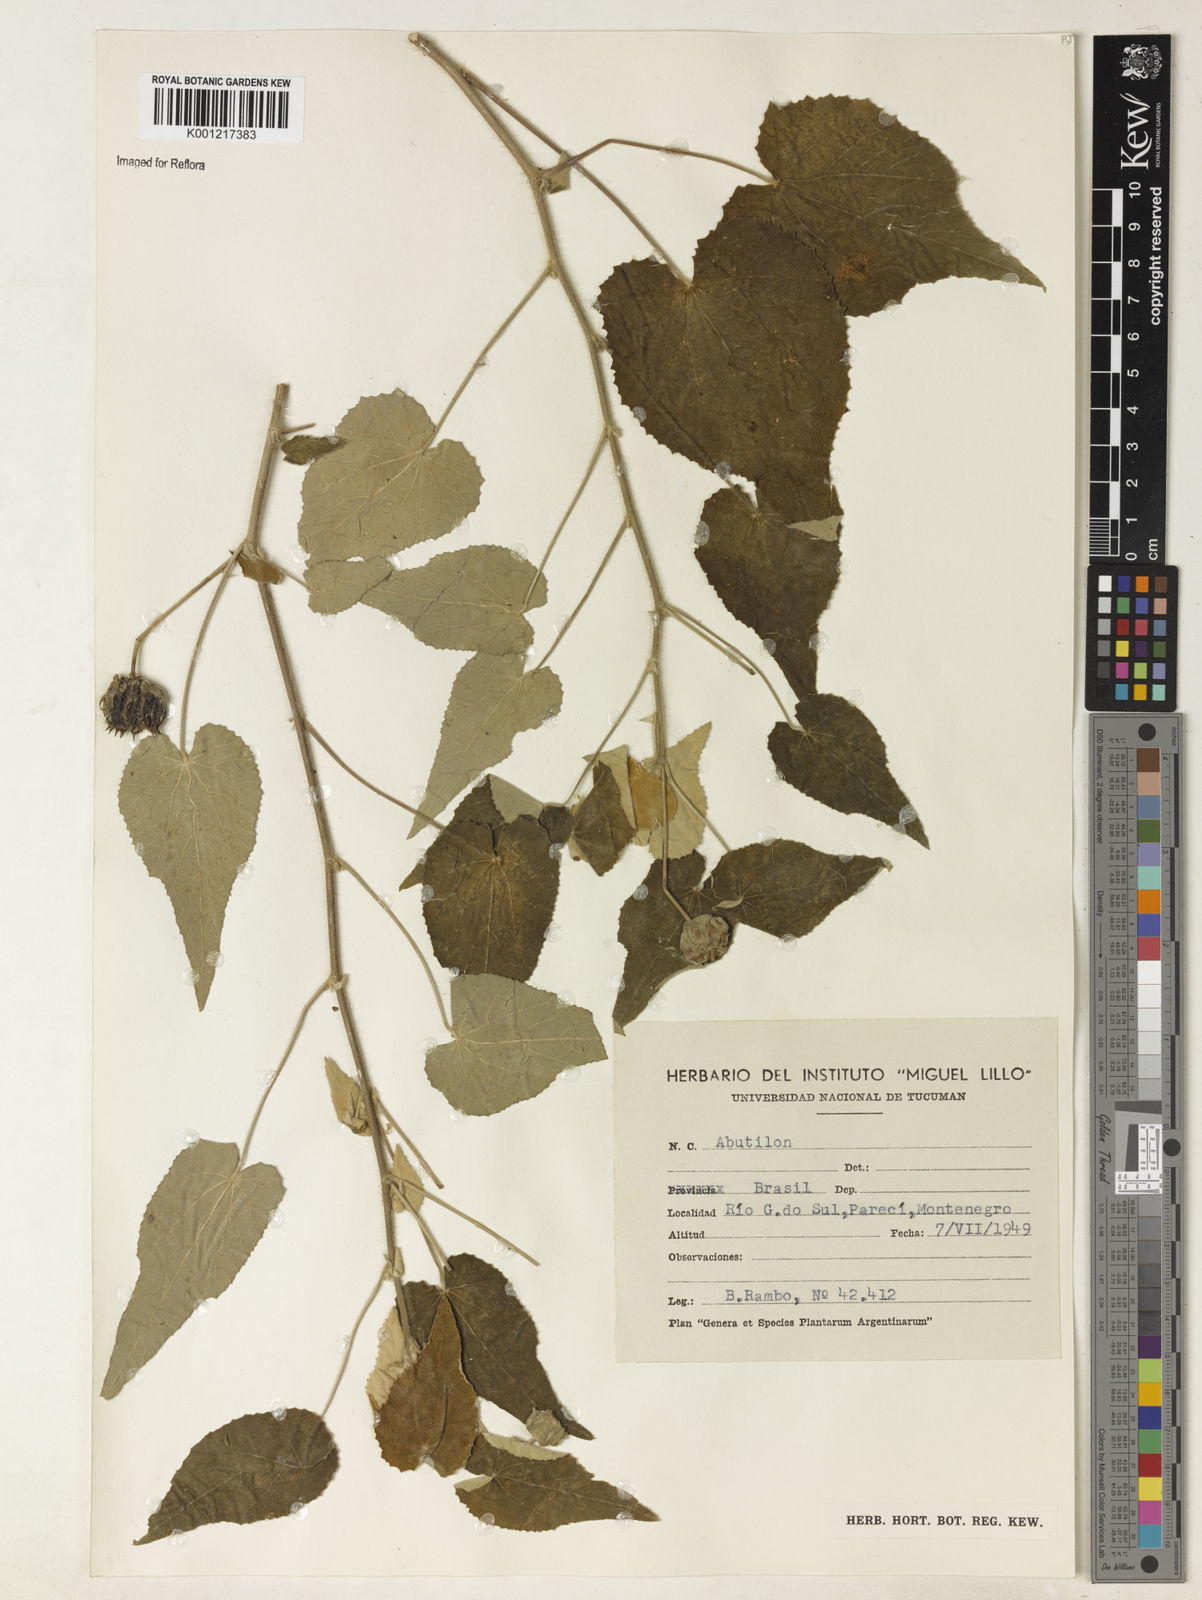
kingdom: Plantae
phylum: Tracheophyta
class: Magnoliopsida
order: Malvales
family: Malvaceae
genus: Abutilon
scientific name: Abutilon
